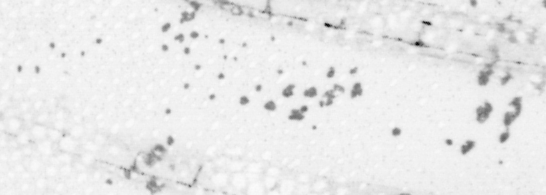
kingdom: Animalia
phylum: Chordata
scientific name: Chordata
